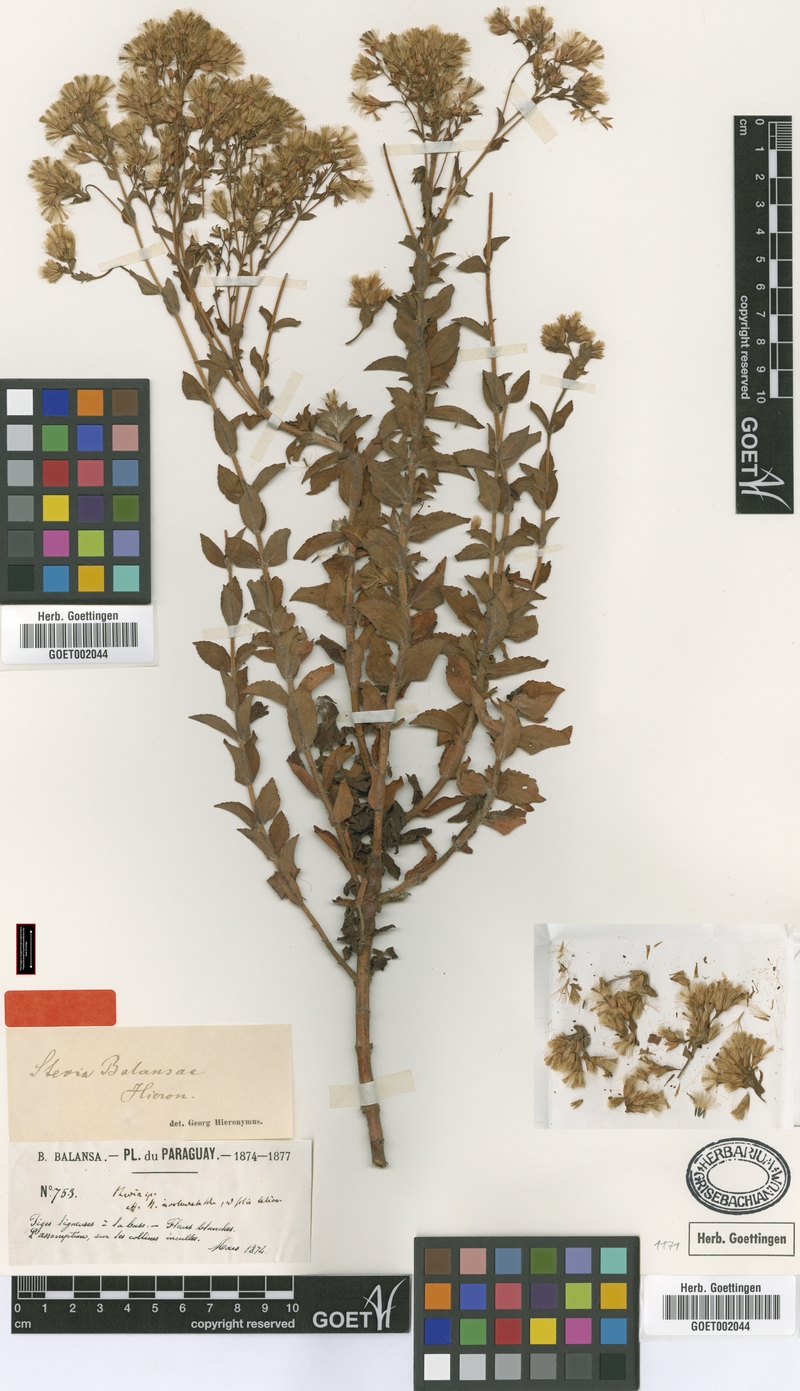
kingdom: Plantae
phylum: Tracheophyta
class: Magnoliopsida
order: Asterales
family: Asteraceae
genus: Stevia
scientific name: Stevia balansae
